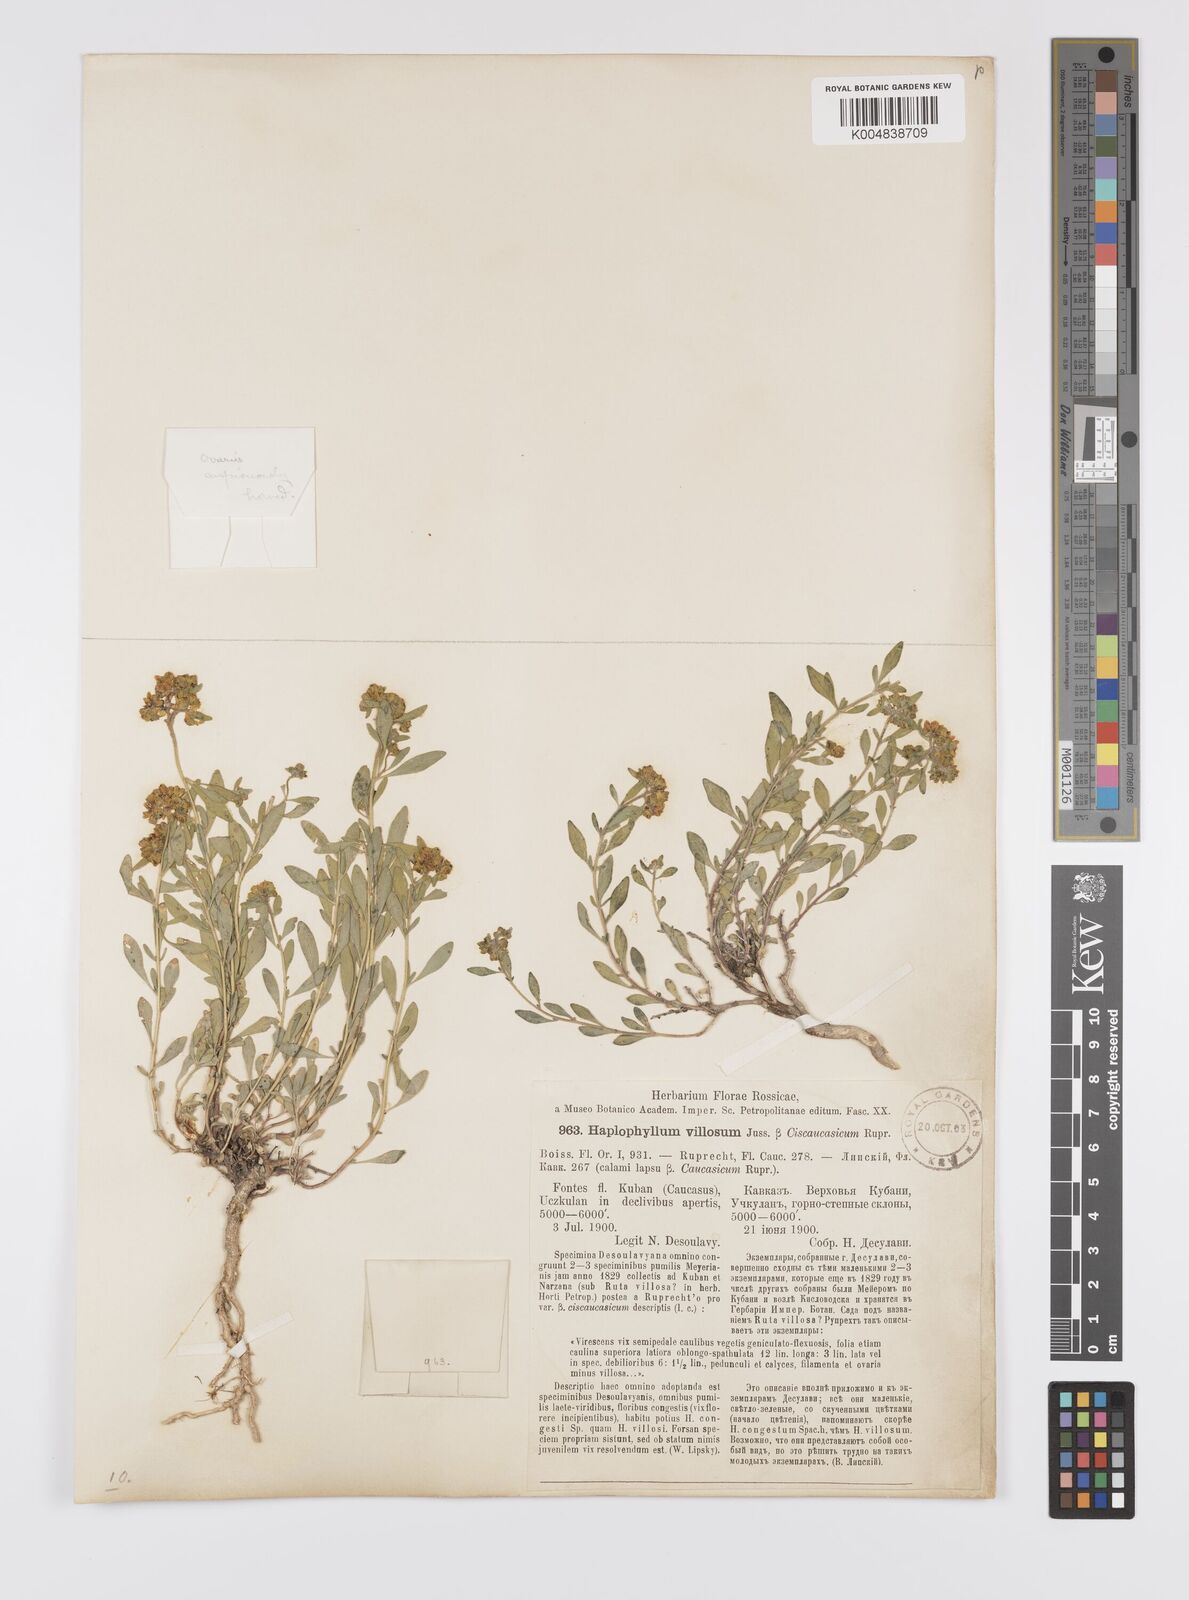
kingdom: Plantae
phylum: Tracheophyta
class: Magnoliopsida
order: Sapindales
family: Rutaceae
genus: Haplophyllum
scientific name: Haplophyllum ciscaucasicum
